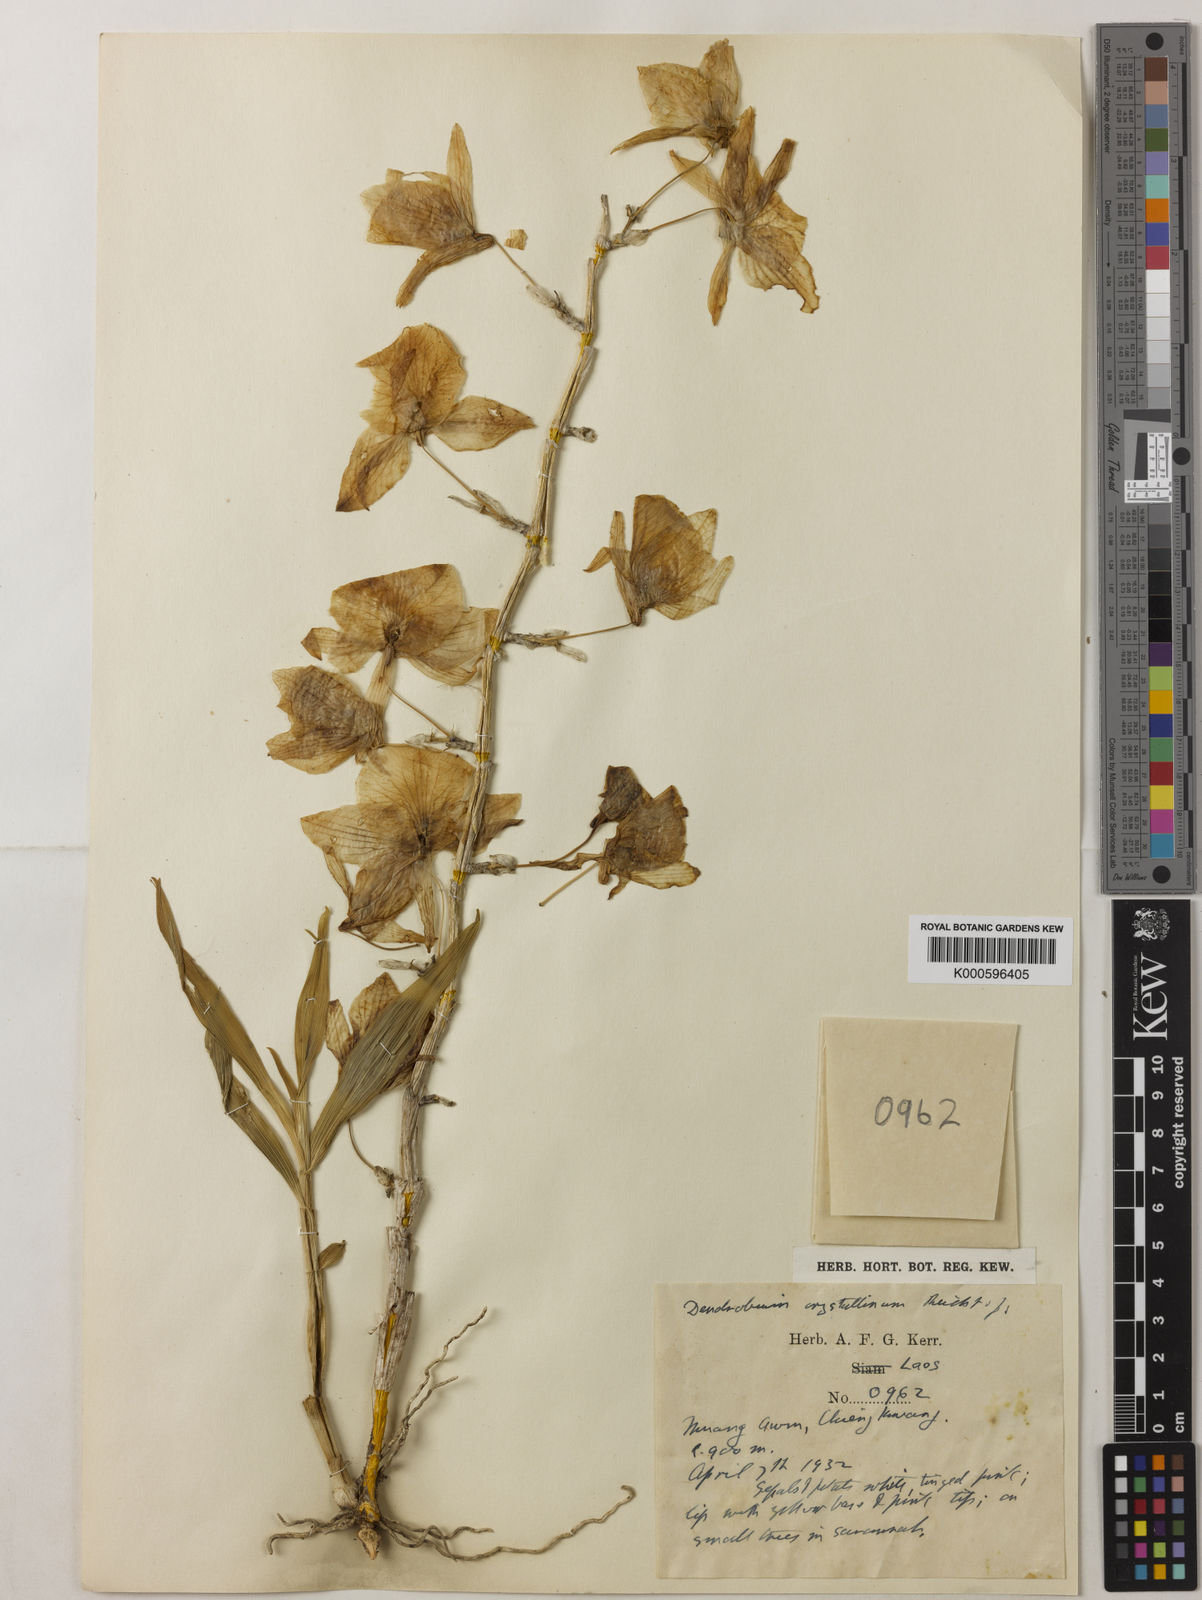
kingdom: Plantae
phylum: Tracheophyta
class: Liliopsida
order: Asparagales
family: Orchidaceae
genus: Dendrobium
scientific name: Dendrobium crystallinum
